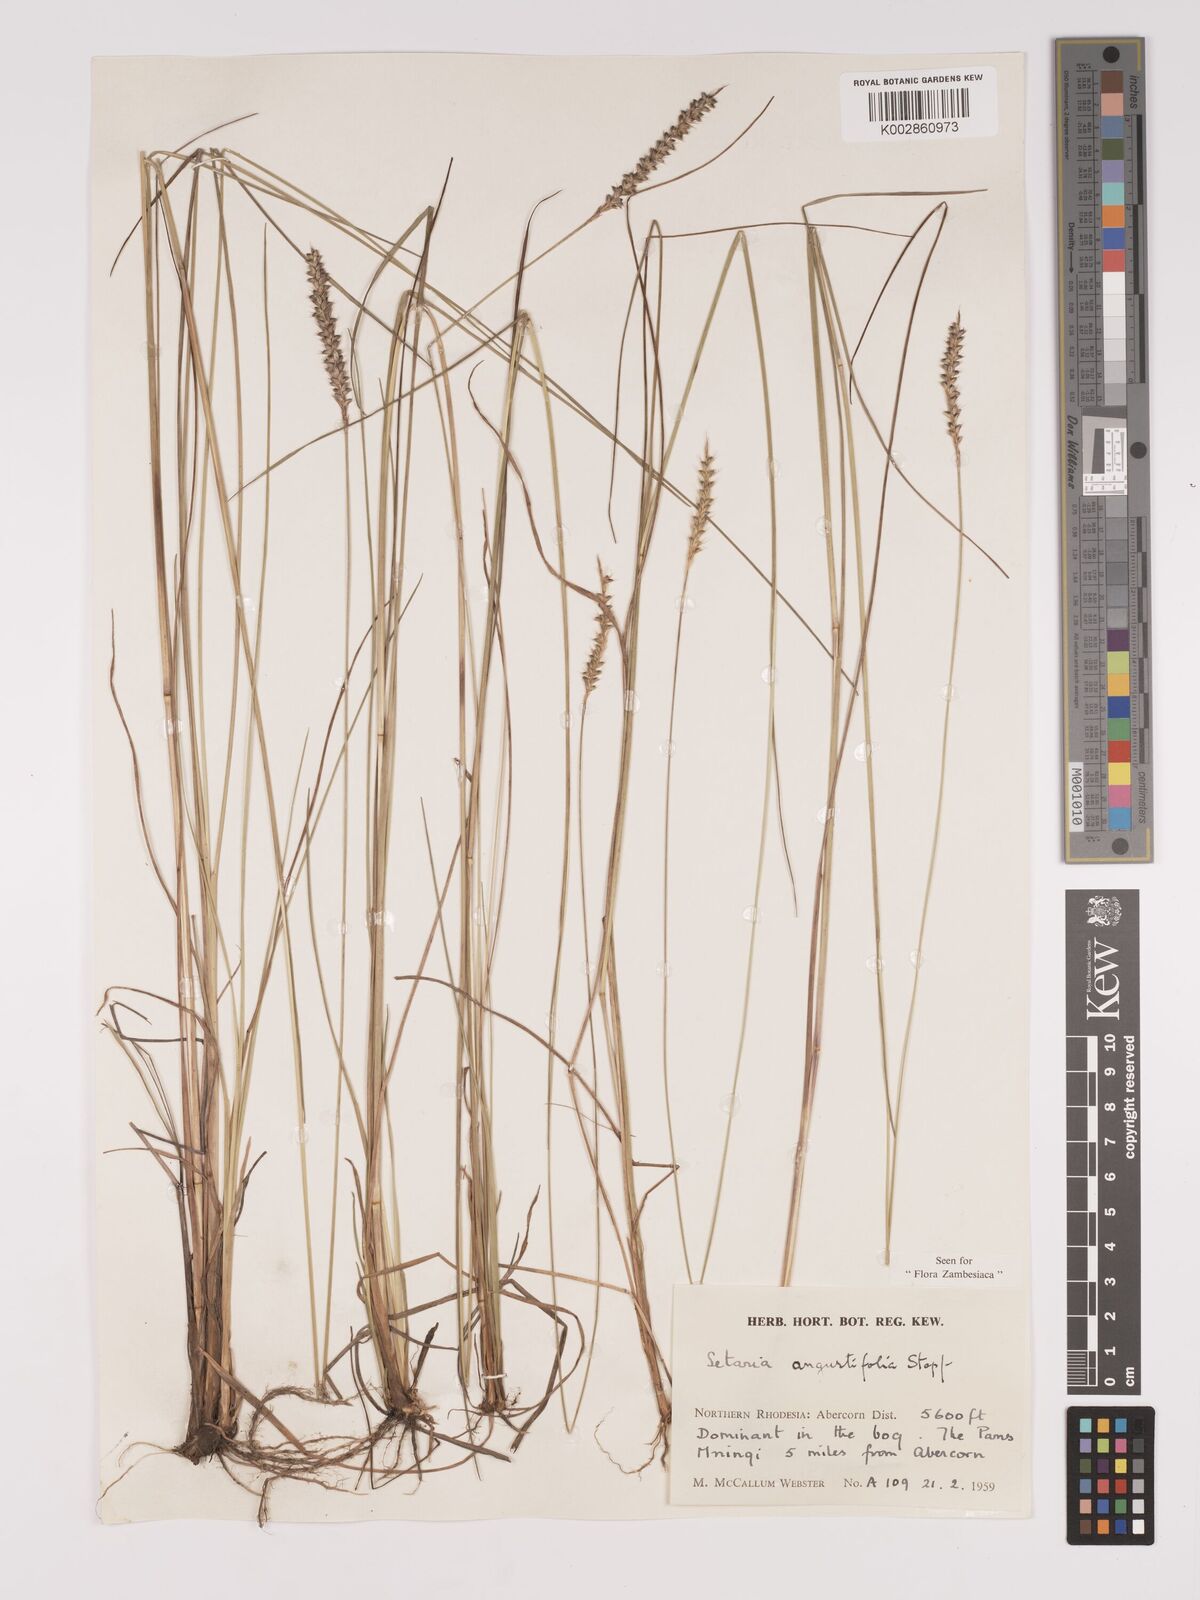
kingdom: Plantae
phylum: Tracheophyta
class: Liliopsida
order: Poales
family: Poaceae
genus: Setaria
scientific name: Setaria
